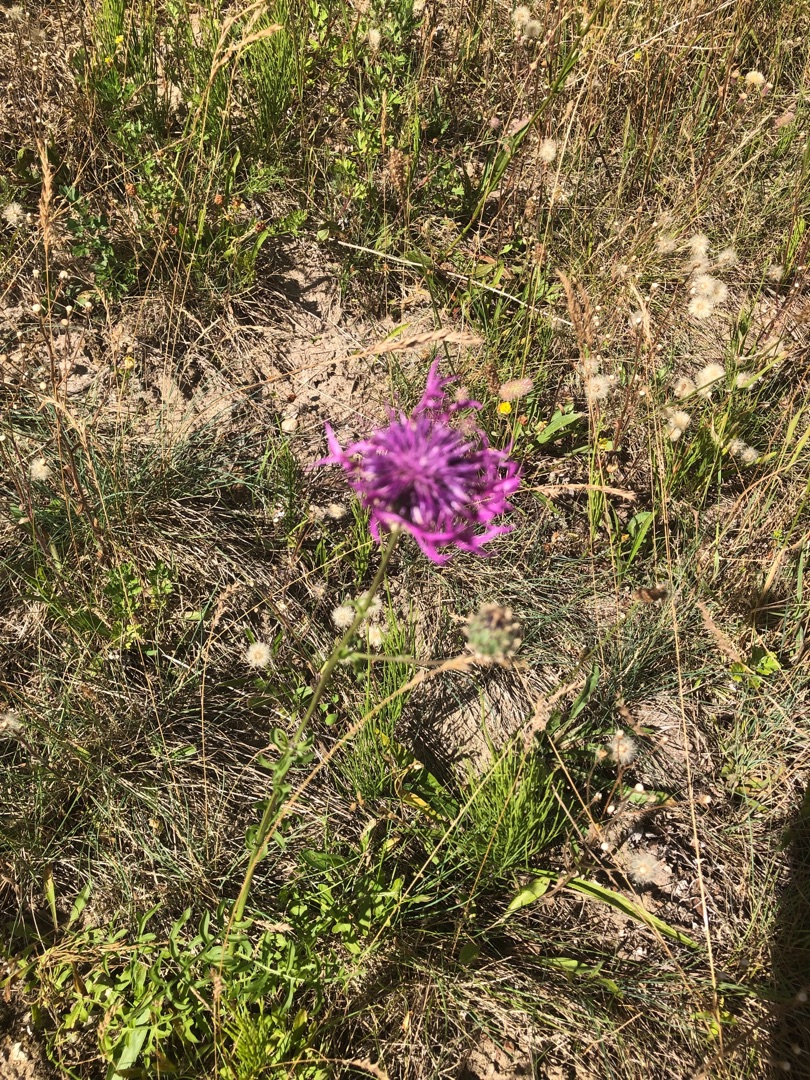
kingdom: Plantae
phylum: Tracheophyta
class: Magnoliopsida
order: Asterales
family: Asteraceae
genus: Centaurea
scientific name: Centaurea scabiosa
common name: Stor knopurt
